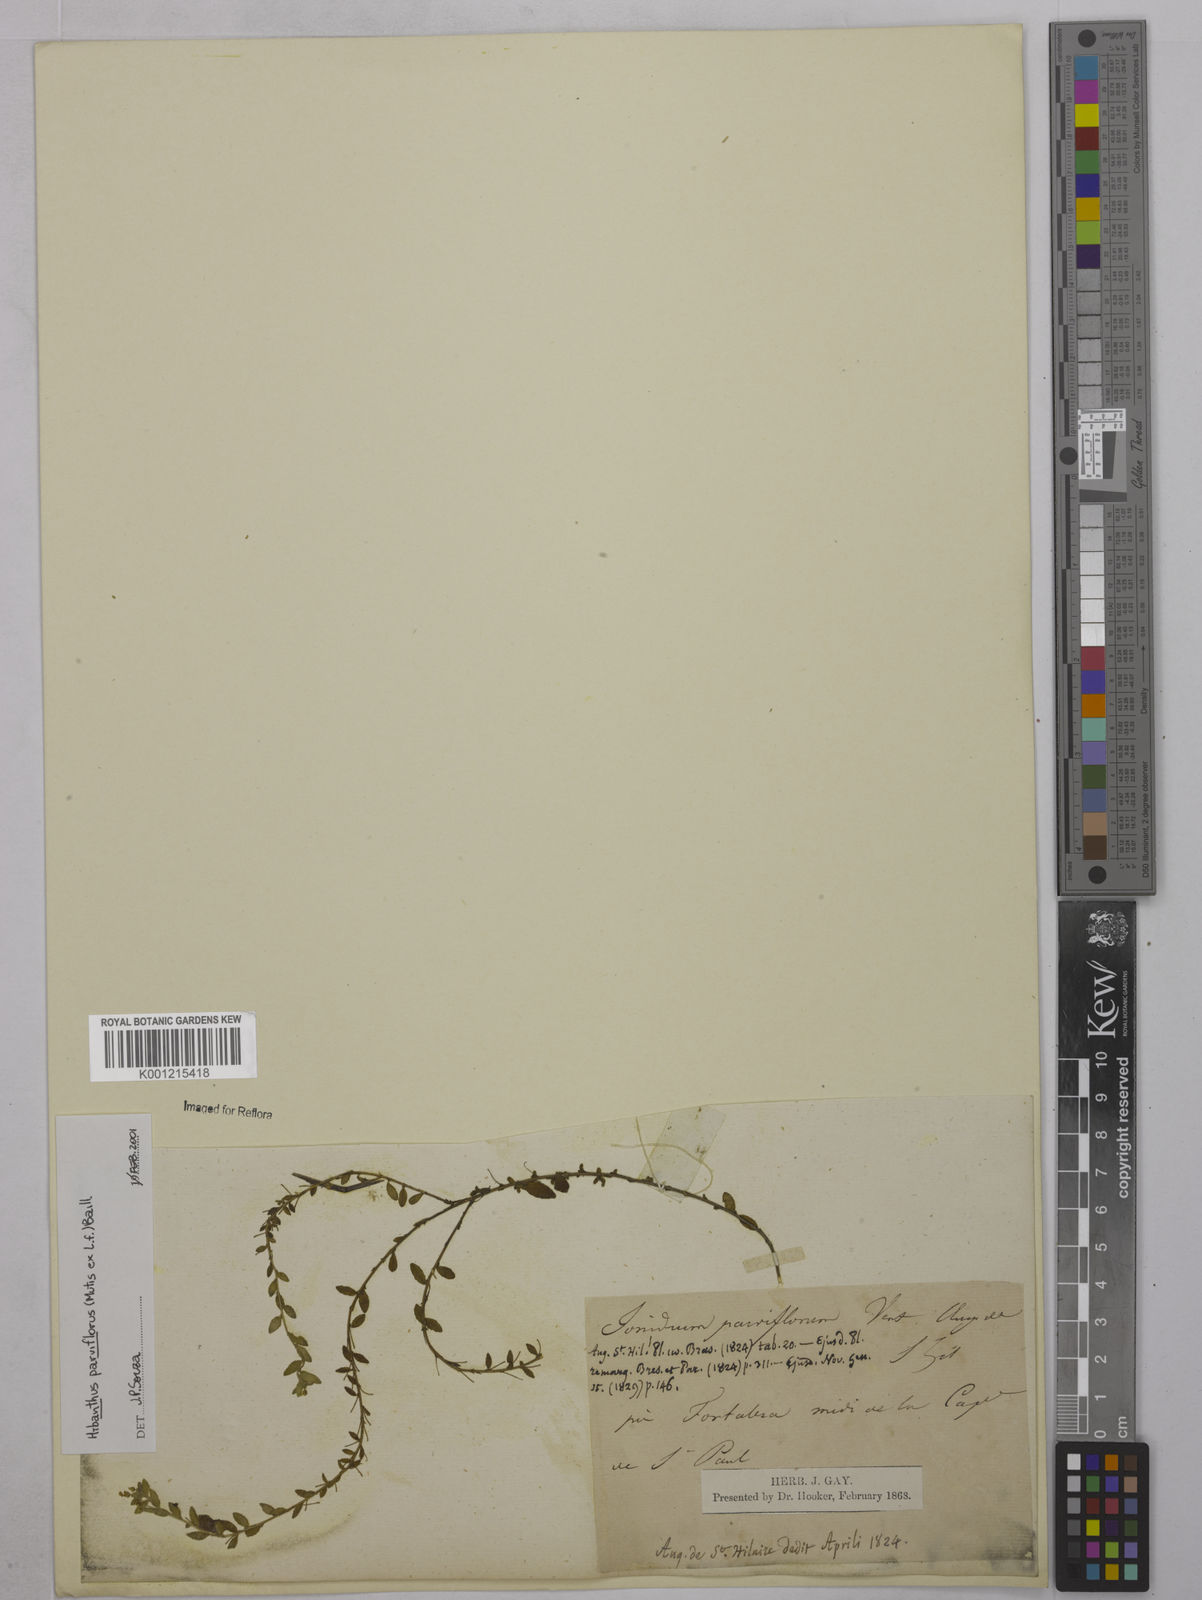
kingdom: Plantae
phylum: Tracheophyta
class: Magnoliopsida
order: Malpighiales
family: Violaceae
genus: Pombalia
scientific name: Pombalia parviflora
